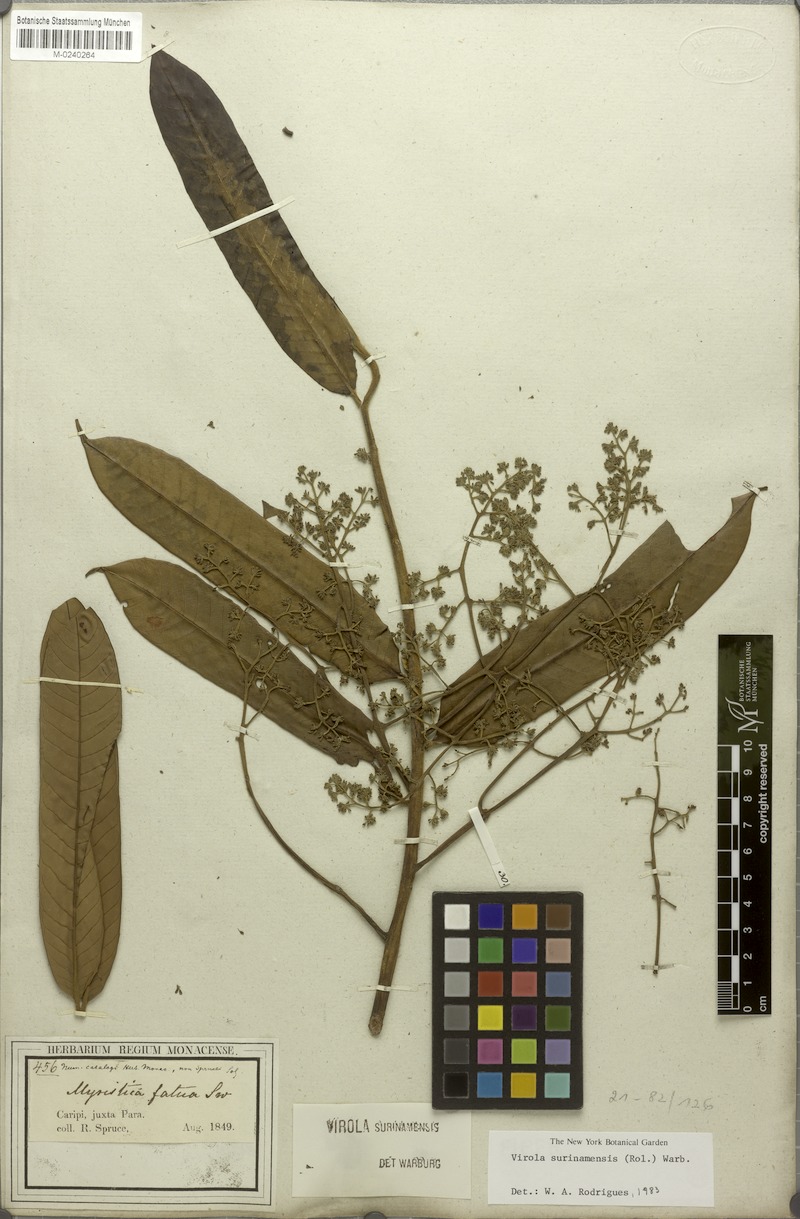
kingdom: Plantae
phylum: Tracheophyta
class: Magnoliopsida
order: Magnoliales
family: Myristicaceae
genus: Virola
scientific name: Virola surinamensis
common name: Baboonwood
